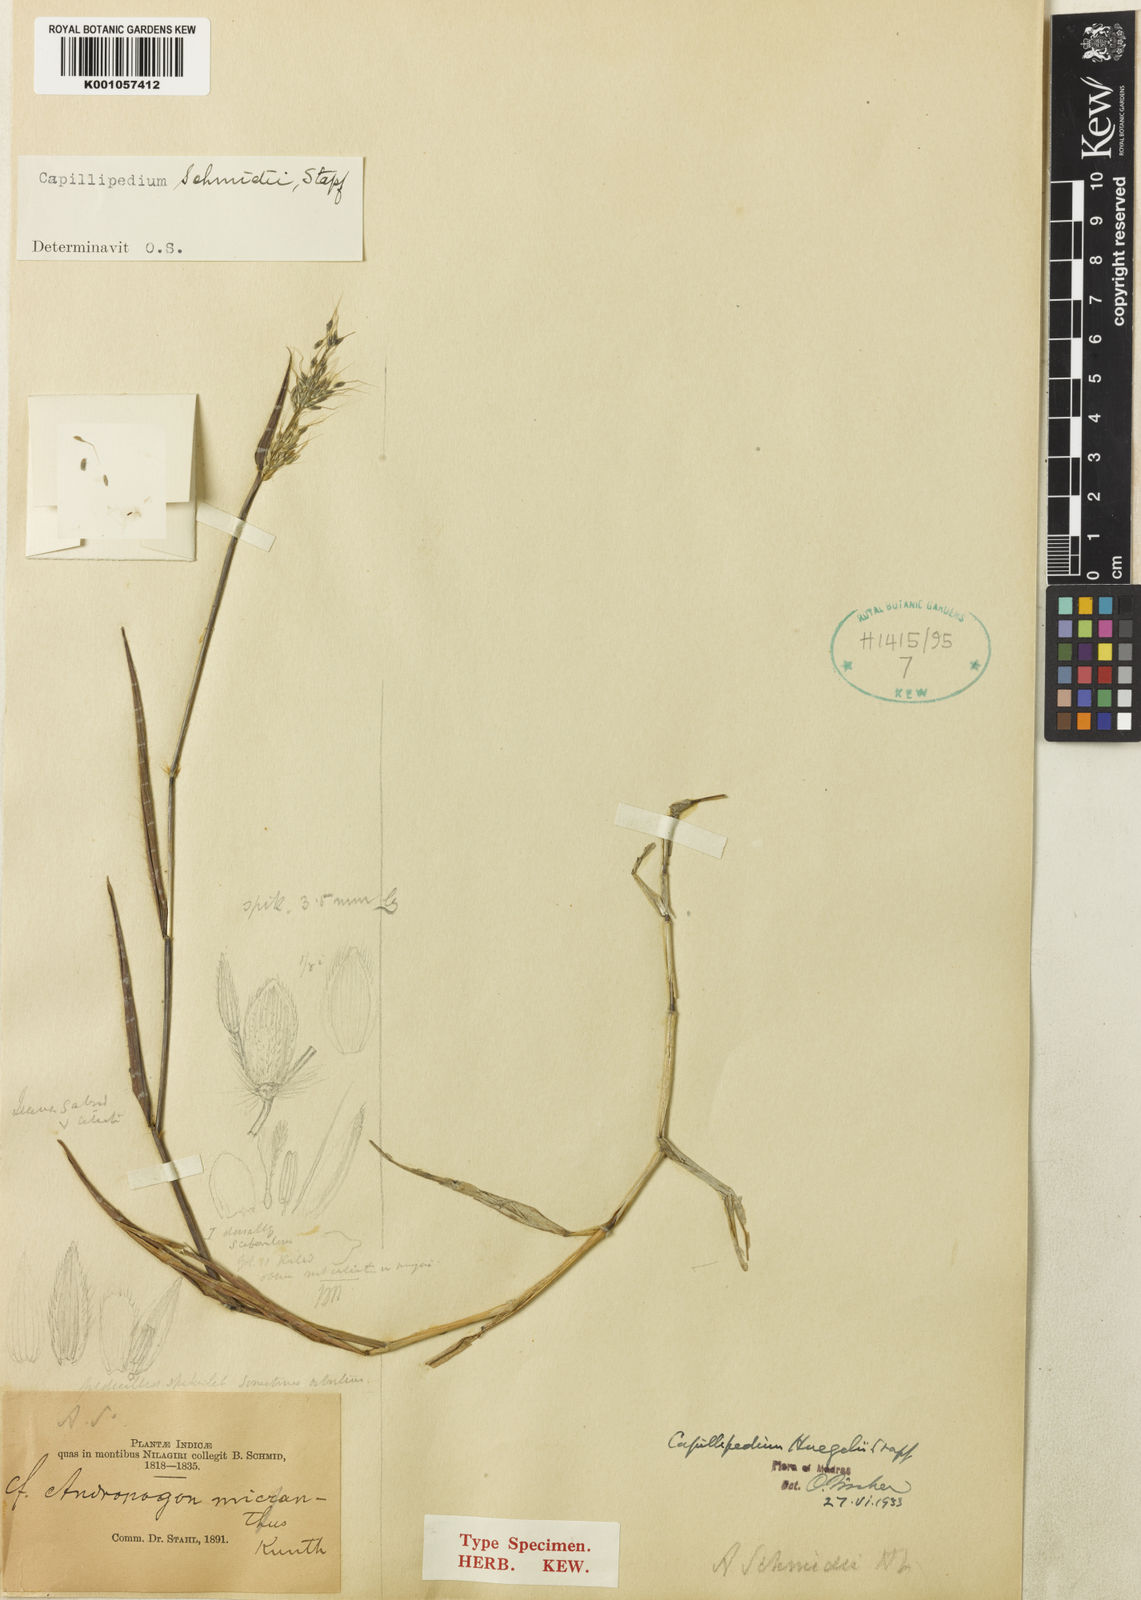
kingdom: Plantae
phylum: Tracheophyta
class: Liliopsida
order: Poales
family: Poaceae
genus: Capillipedium
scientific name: Capillipedium
